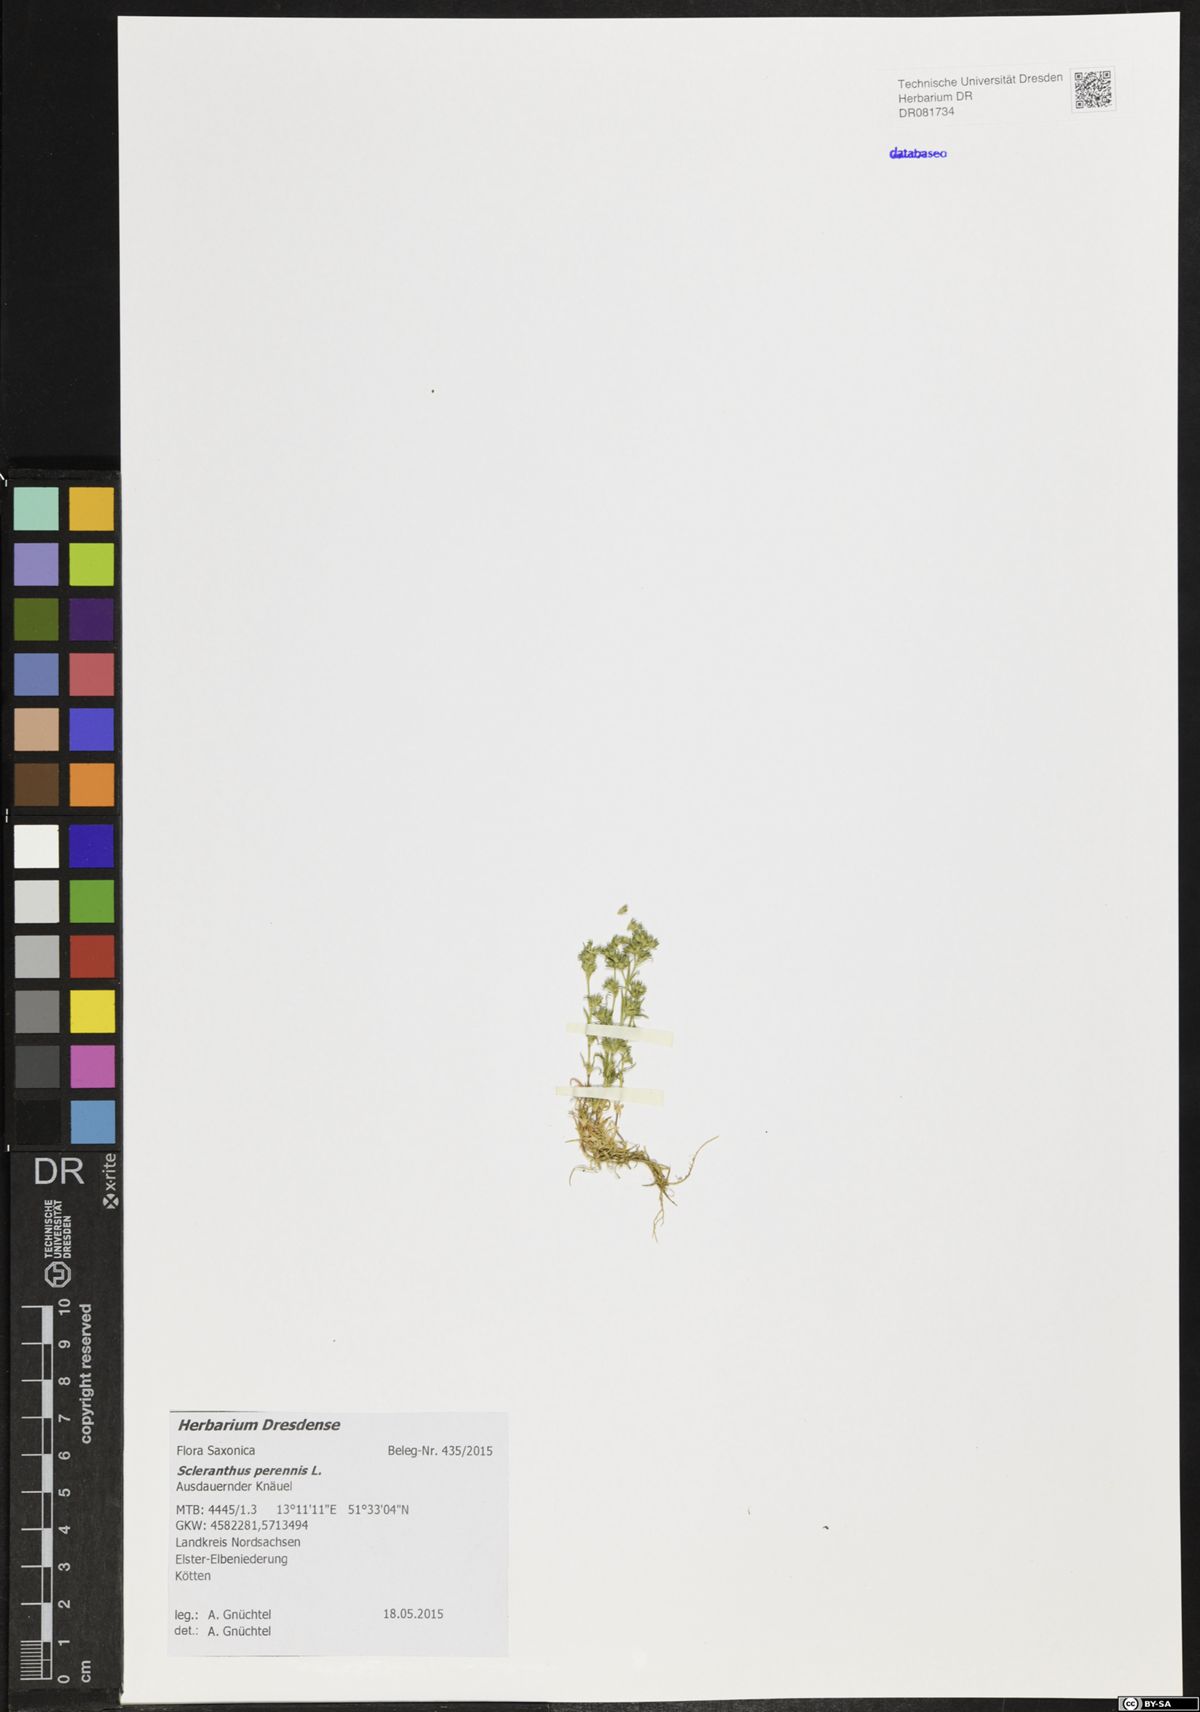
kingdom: Plantae
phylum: Tracheophyta
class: Magnoliopsida
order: Caryophyllales
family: Caryophyllaceae
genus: Scleranthus
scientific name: Scleranthus perennis
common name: Perennial knawel
